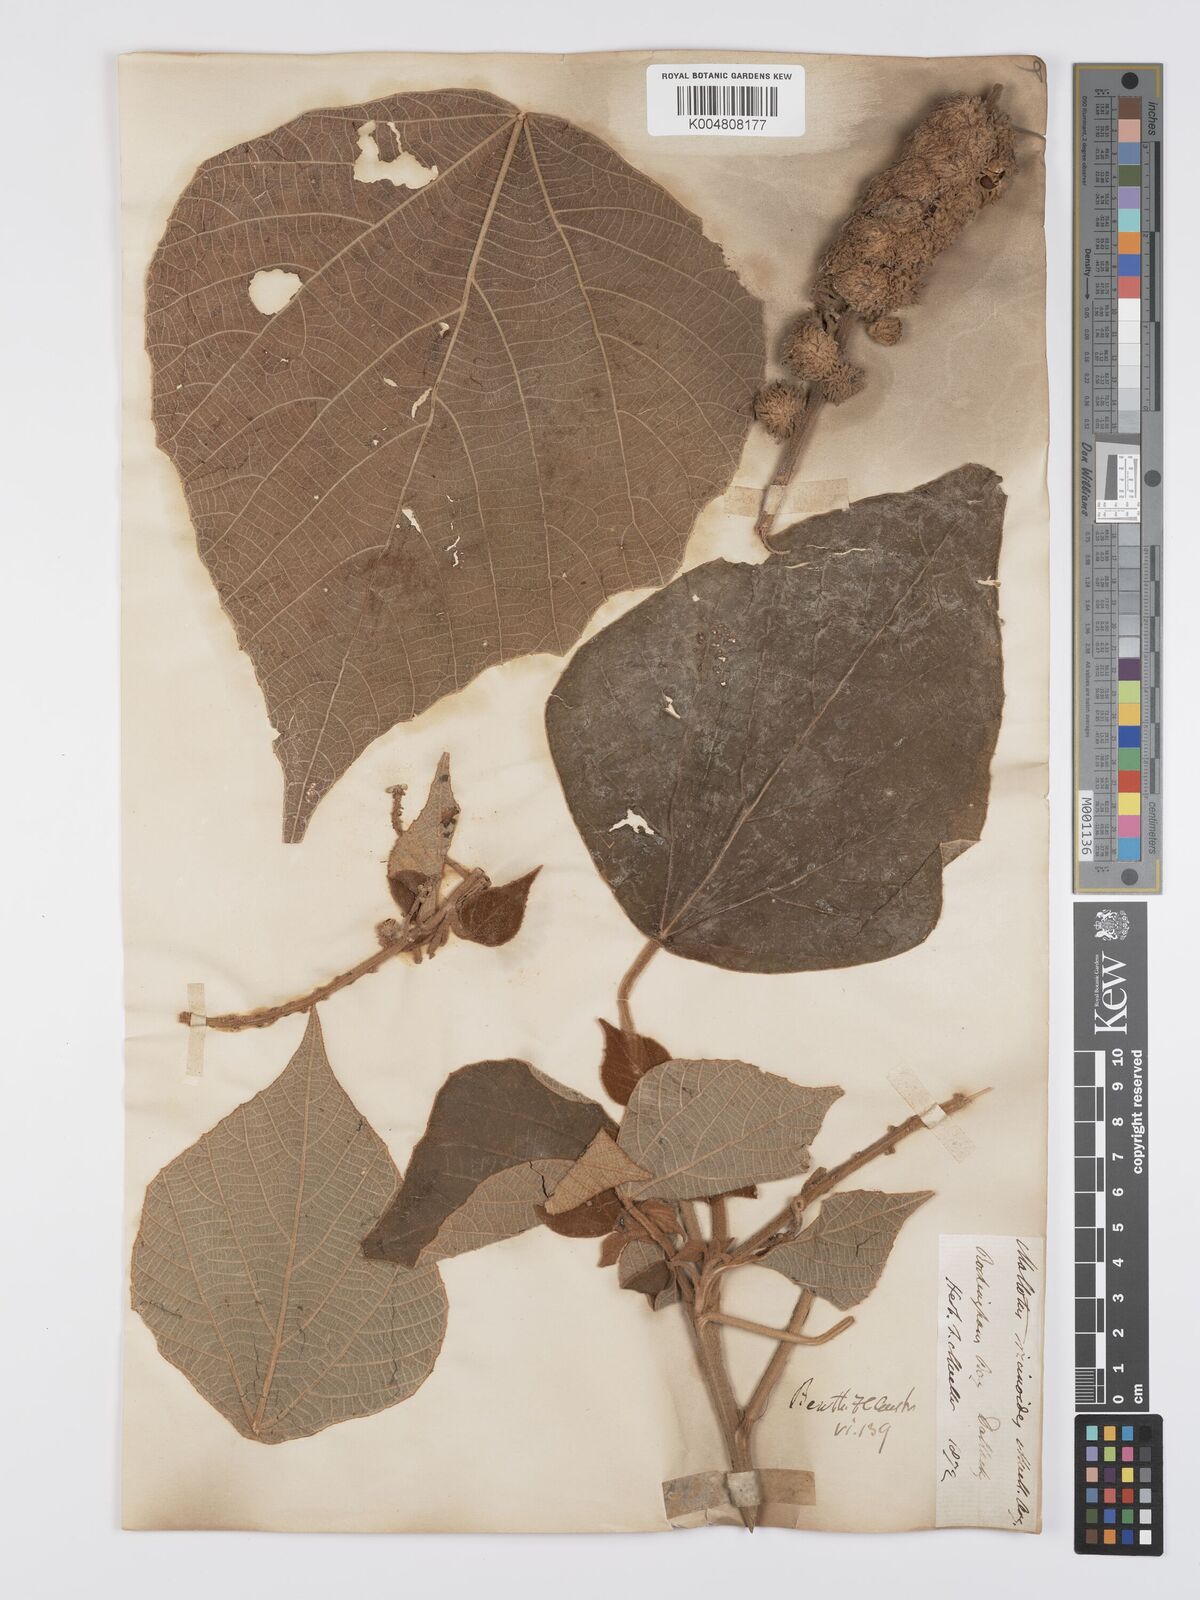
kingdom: Plantae
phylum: Tracheophyta
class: Magnoliopsida
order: Malpighiales
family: Euphorbiaceae
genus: Mallotus
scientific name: Mallotus mollissimus
